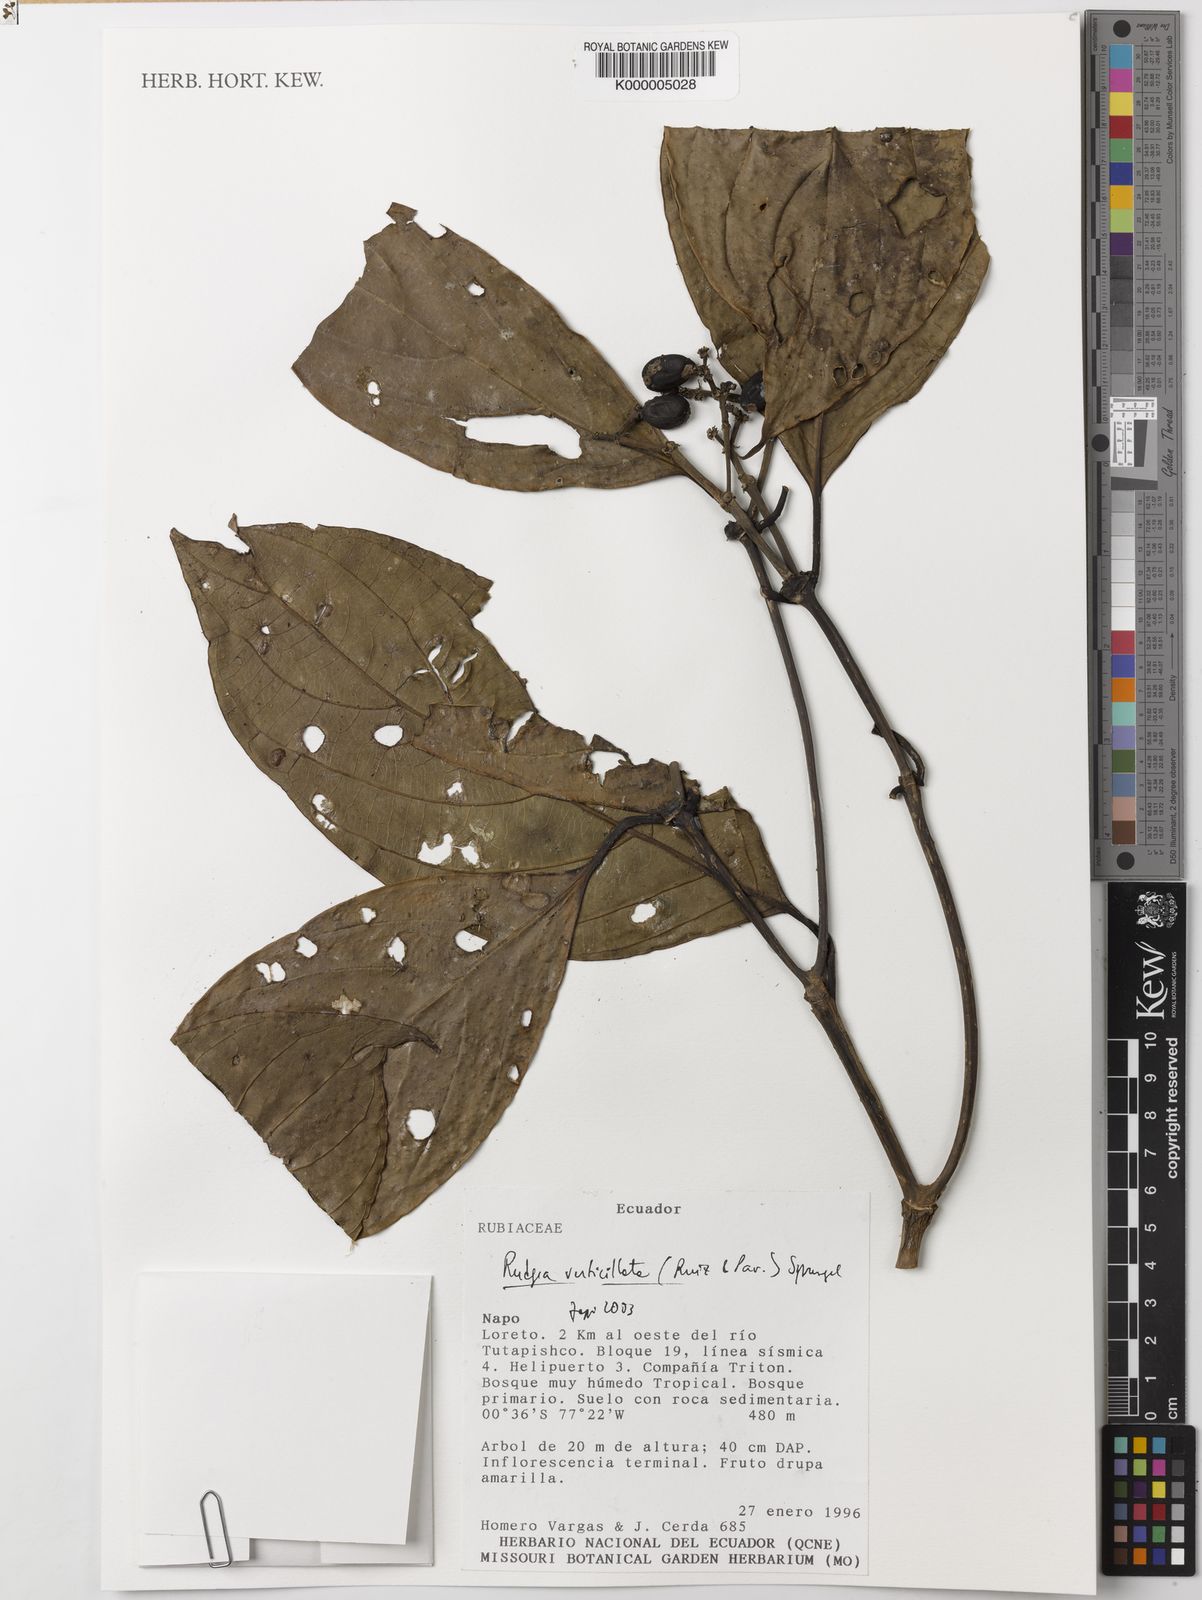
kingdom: Plantae
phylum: Tracheophyta
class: Magnoliopsida
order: Gentianales
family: Rubiaceae
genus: Rudgea
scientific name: Rudgea verticillata
